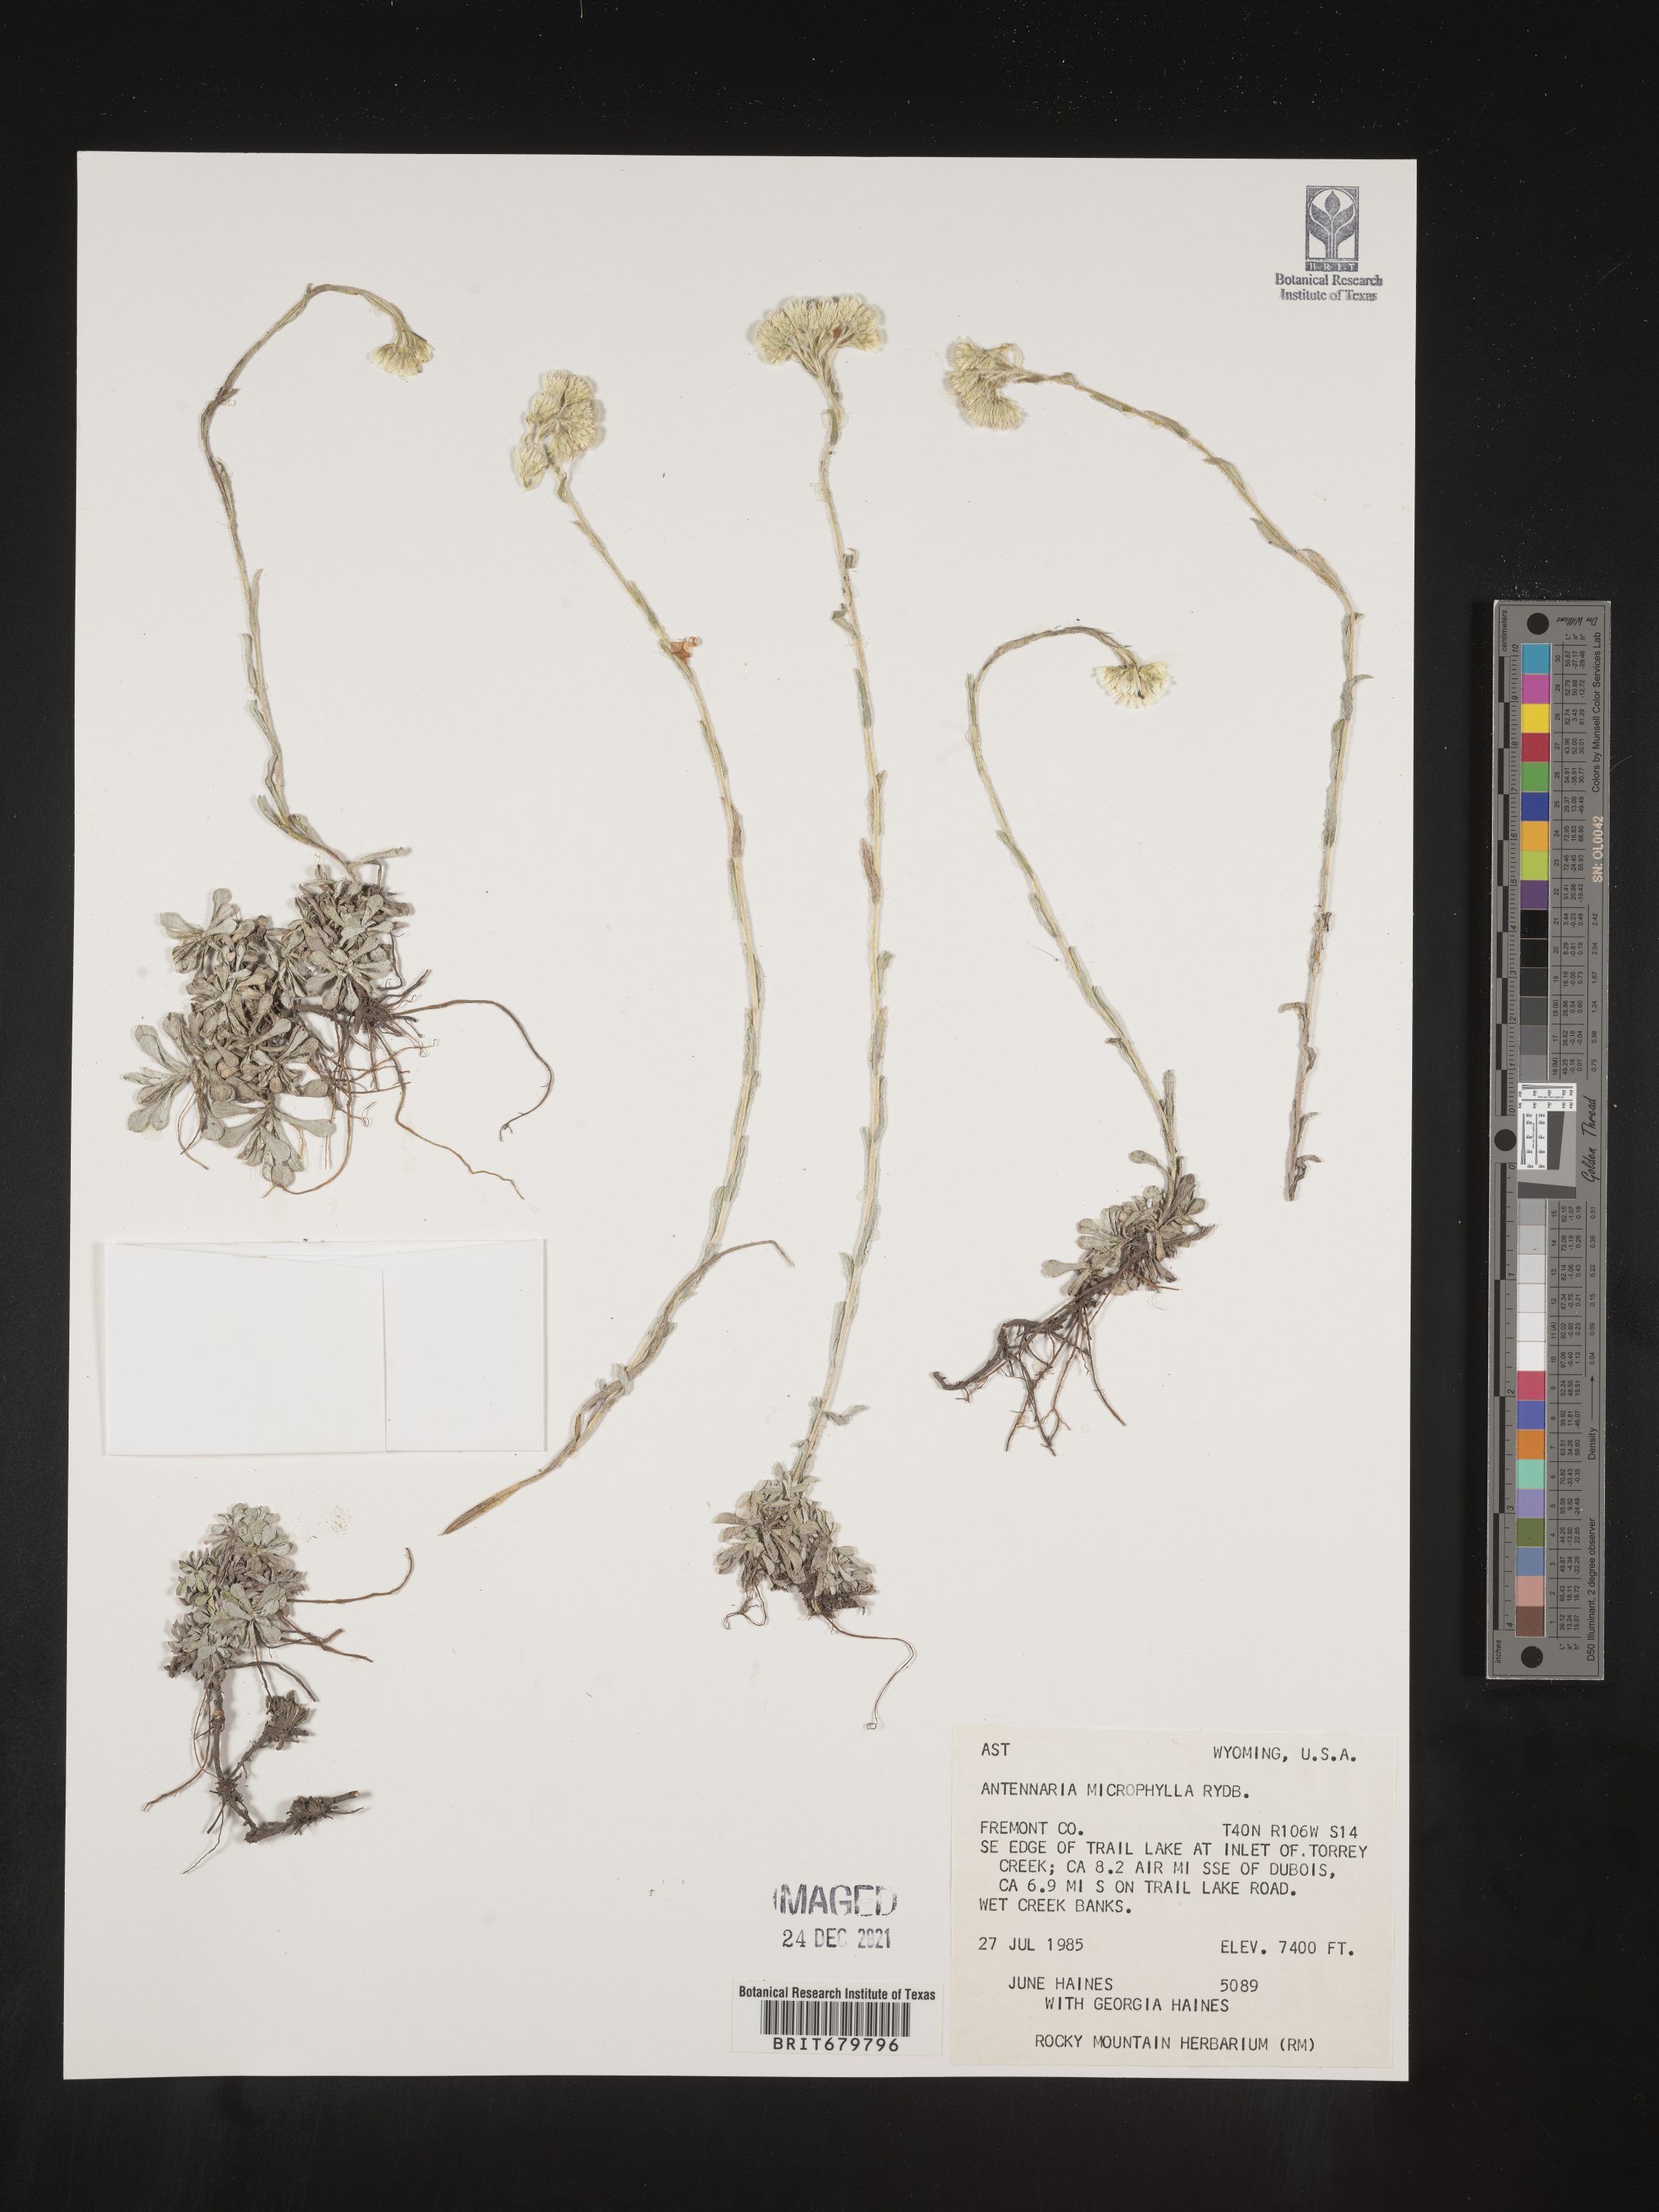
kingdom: Plantae
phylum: Tracheophyta
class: Magnoliopsida
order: Asterales
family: Asteraceae
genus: Antennaria
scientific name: Antennaria microphylla
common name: Littleleaf pussytoes
